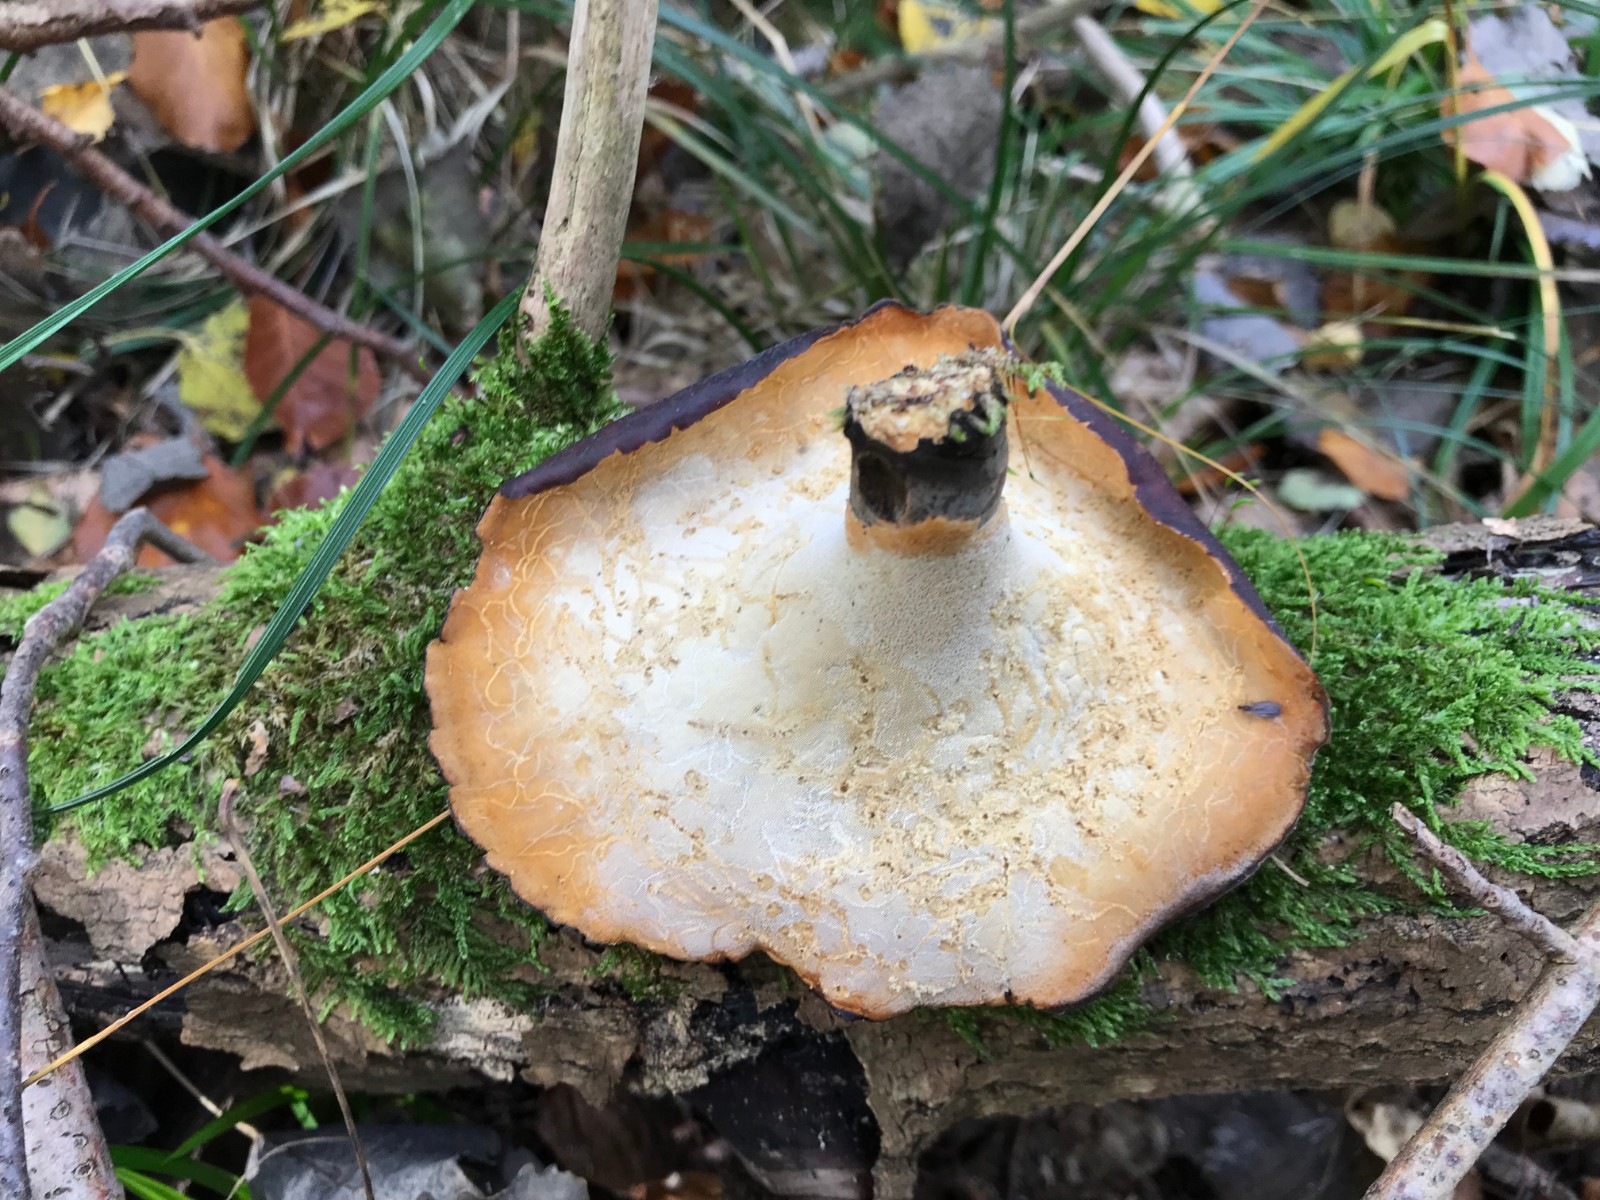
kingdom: Fungi
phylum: Basidiomycota
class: Agaricomycetes
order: Polyporales
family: Polyporaceae
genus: Picipes
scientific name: Picipes badius
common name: kastaniebrun stilkporesvamp
